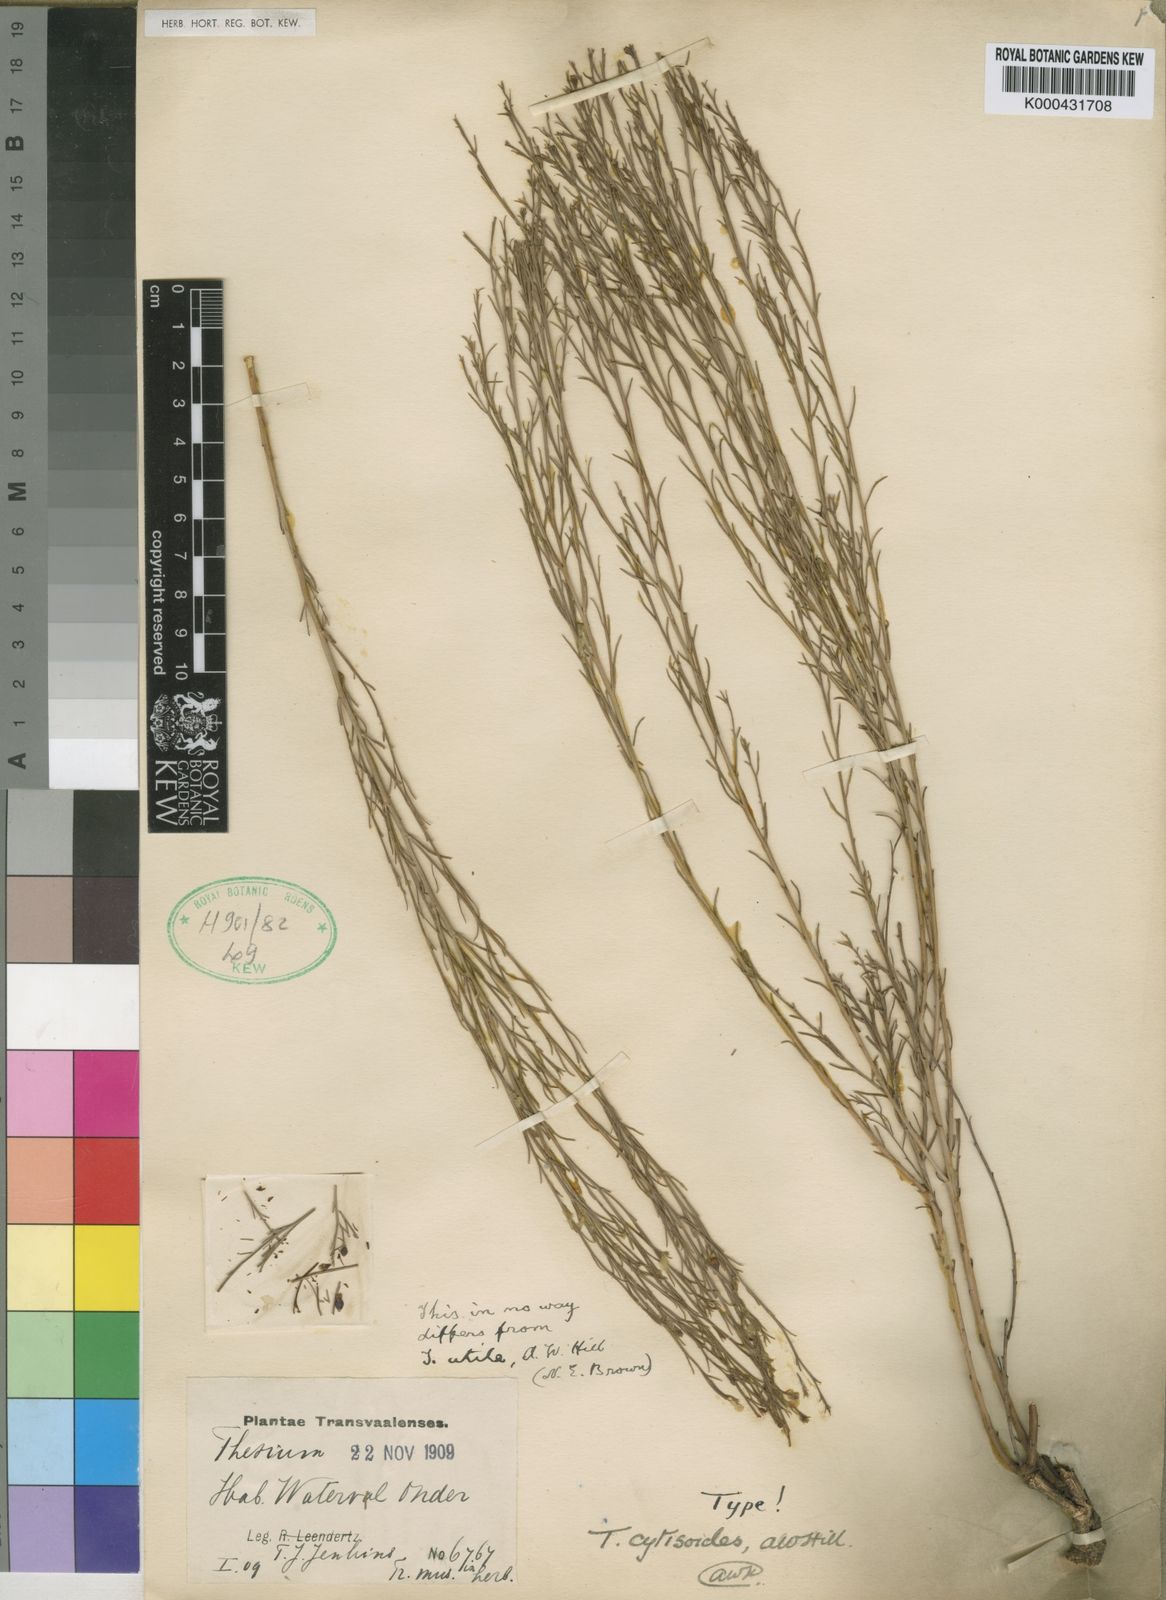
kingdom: Plantae
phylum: Tracheophyta
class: Magnoliopsida
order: Santalales
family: Thesiaceae
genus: Thesium
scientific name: Thesium utile
